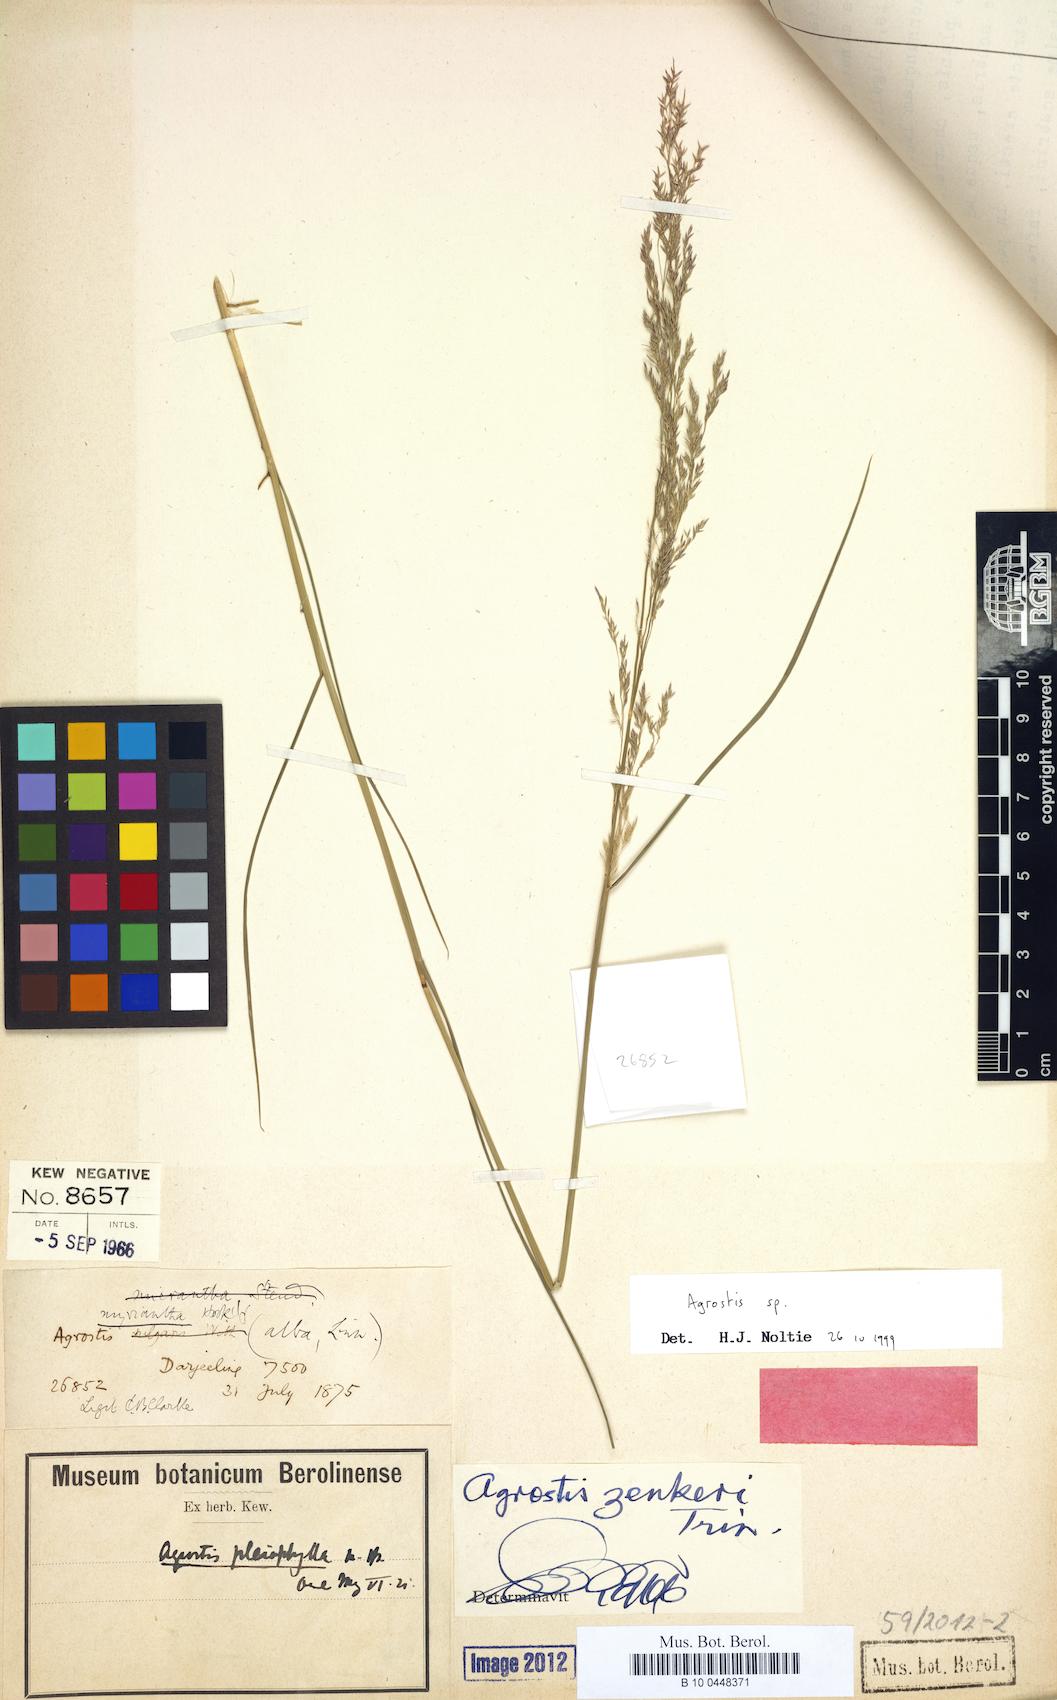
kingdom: Plantae
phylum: Tracheophyta
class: Liliopsida
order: Poales
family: Poaceae
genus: Agrostis
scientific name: Agrostis pleiophylla
